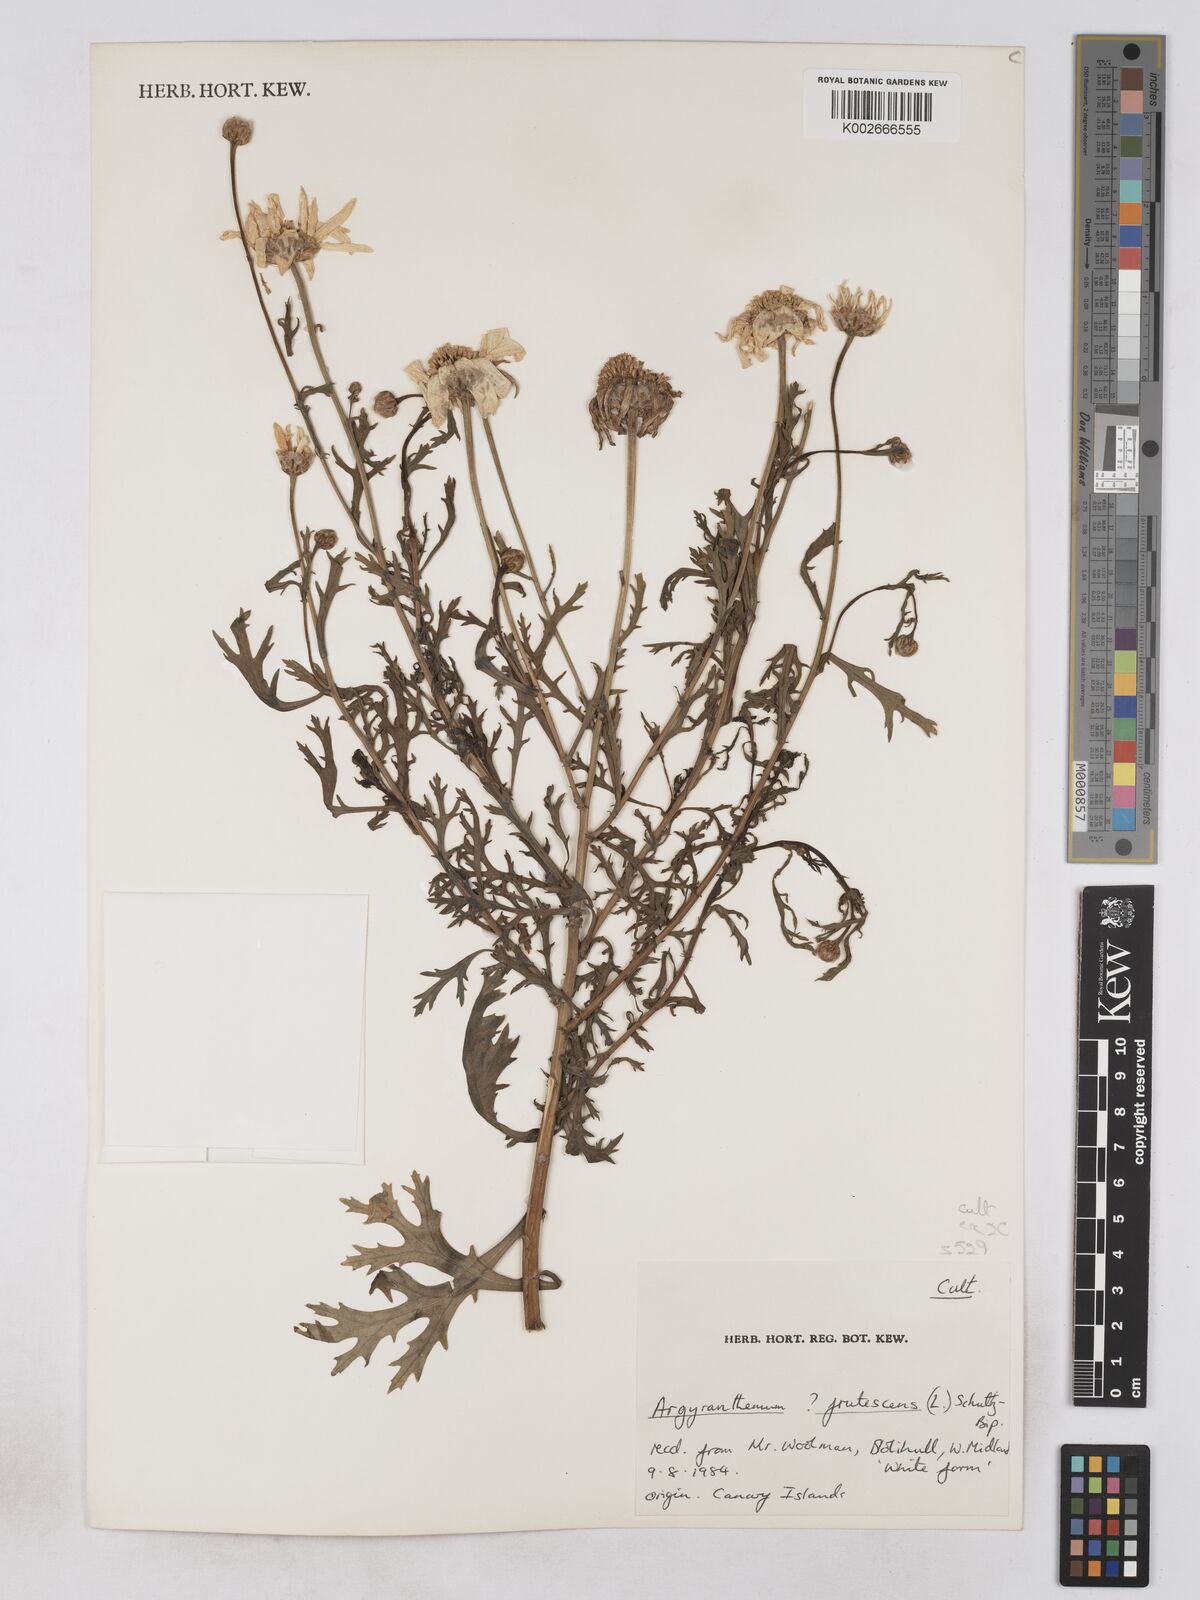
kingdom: Plantae
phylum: Tracheophyta
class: Magnoliopsida
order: Asterales
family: Asteraceae
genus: Argyranthemum
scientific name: Argyranthemum frutescens
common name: Paris daisy
